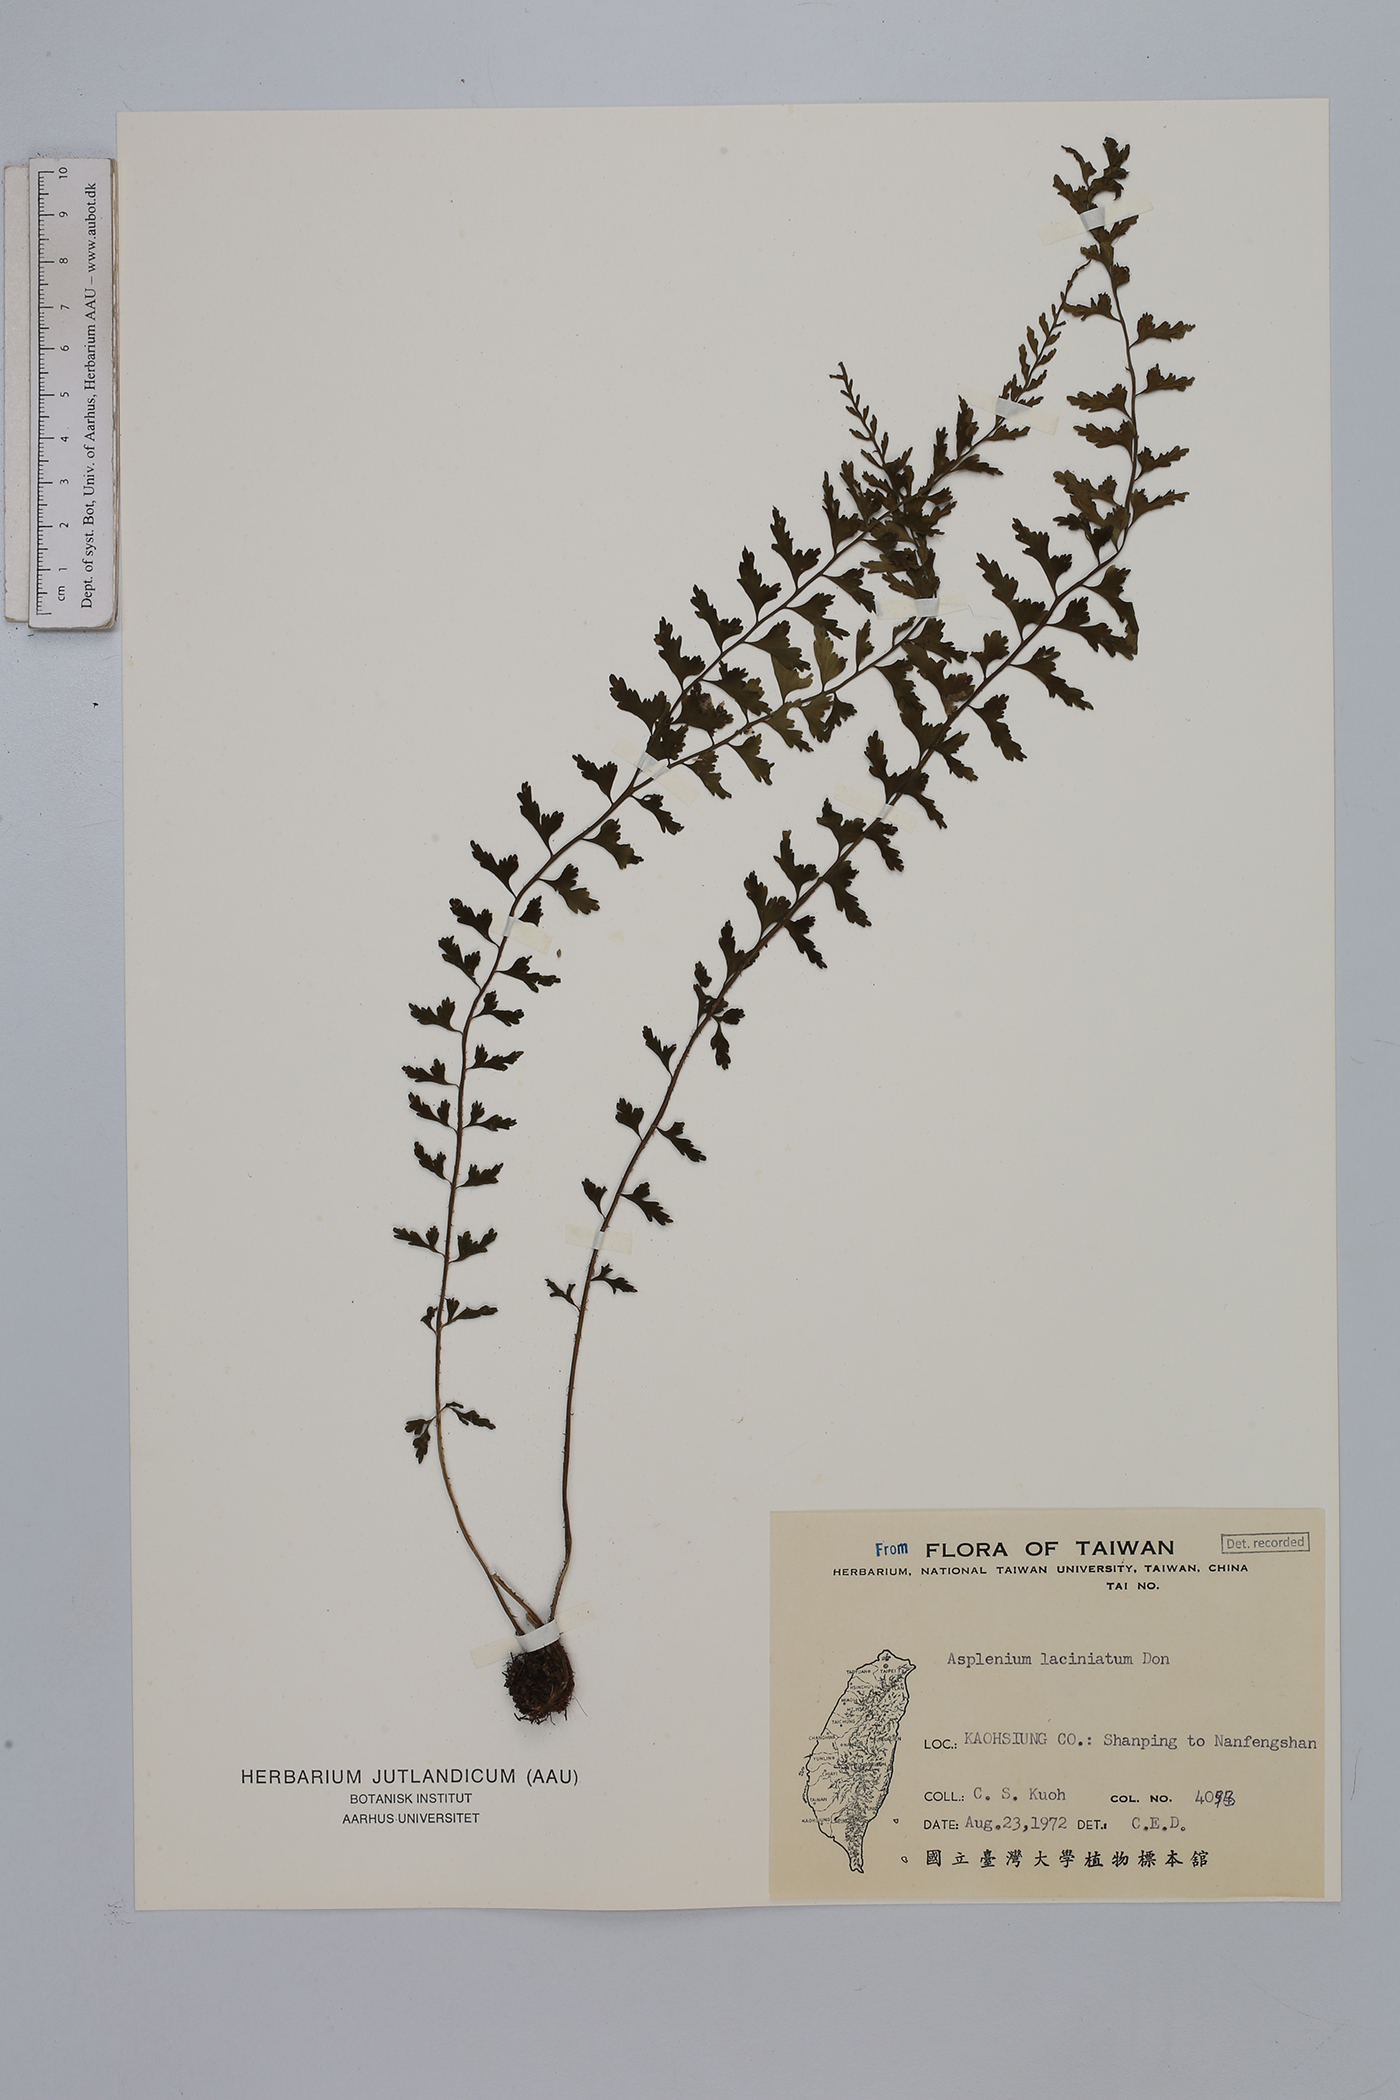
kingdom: Plantae
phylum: Tracheophyta
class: Polypodiopsida
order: Polypodiales
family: Aspleniaceae
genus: Asplenium
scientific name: Asplenium laciniatum
